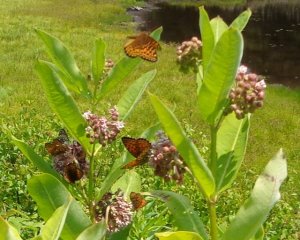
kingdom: Animalia
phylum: Arthropoda
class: Insecta
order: Lepidoptera
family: Nymphalidae
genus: Speyeria
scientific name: Speyeria atlantis
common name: Atlantis Fritillary
